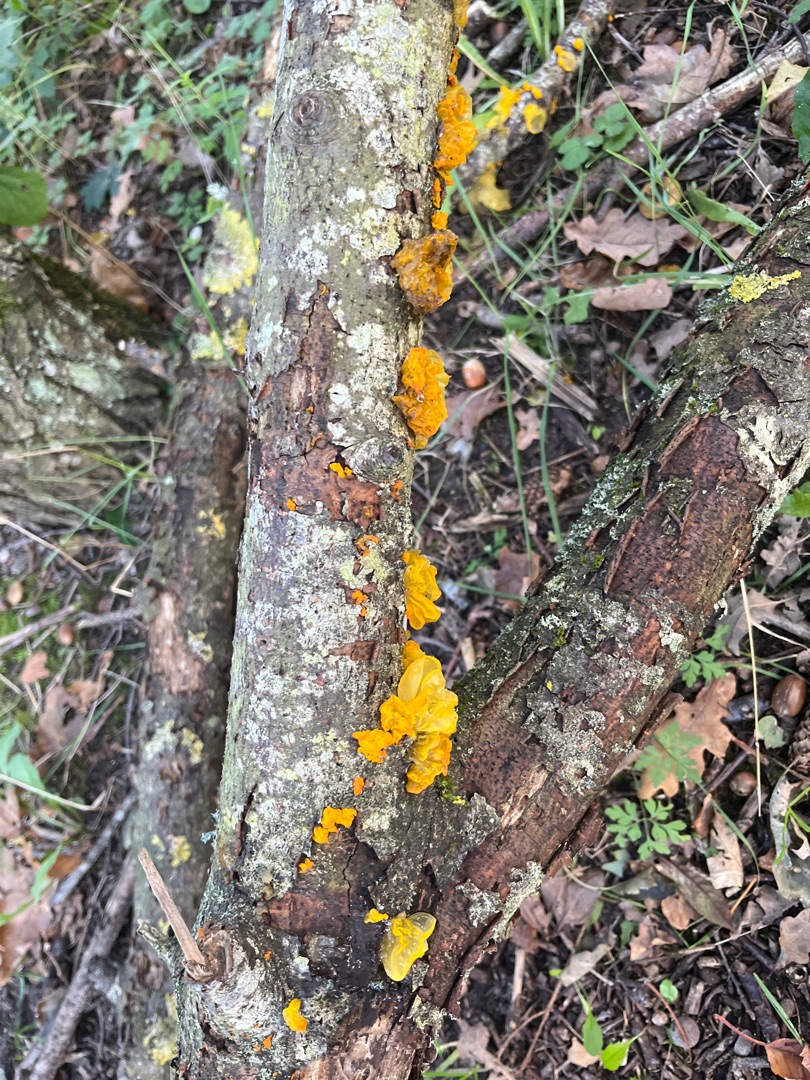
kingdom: Fungi
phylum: Basidiomycota
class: Tremellomycetes
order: Tremellales
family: Tremellaceae
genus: Tremella
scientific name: Tremella mesenterica
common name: Gul bævresvamp
